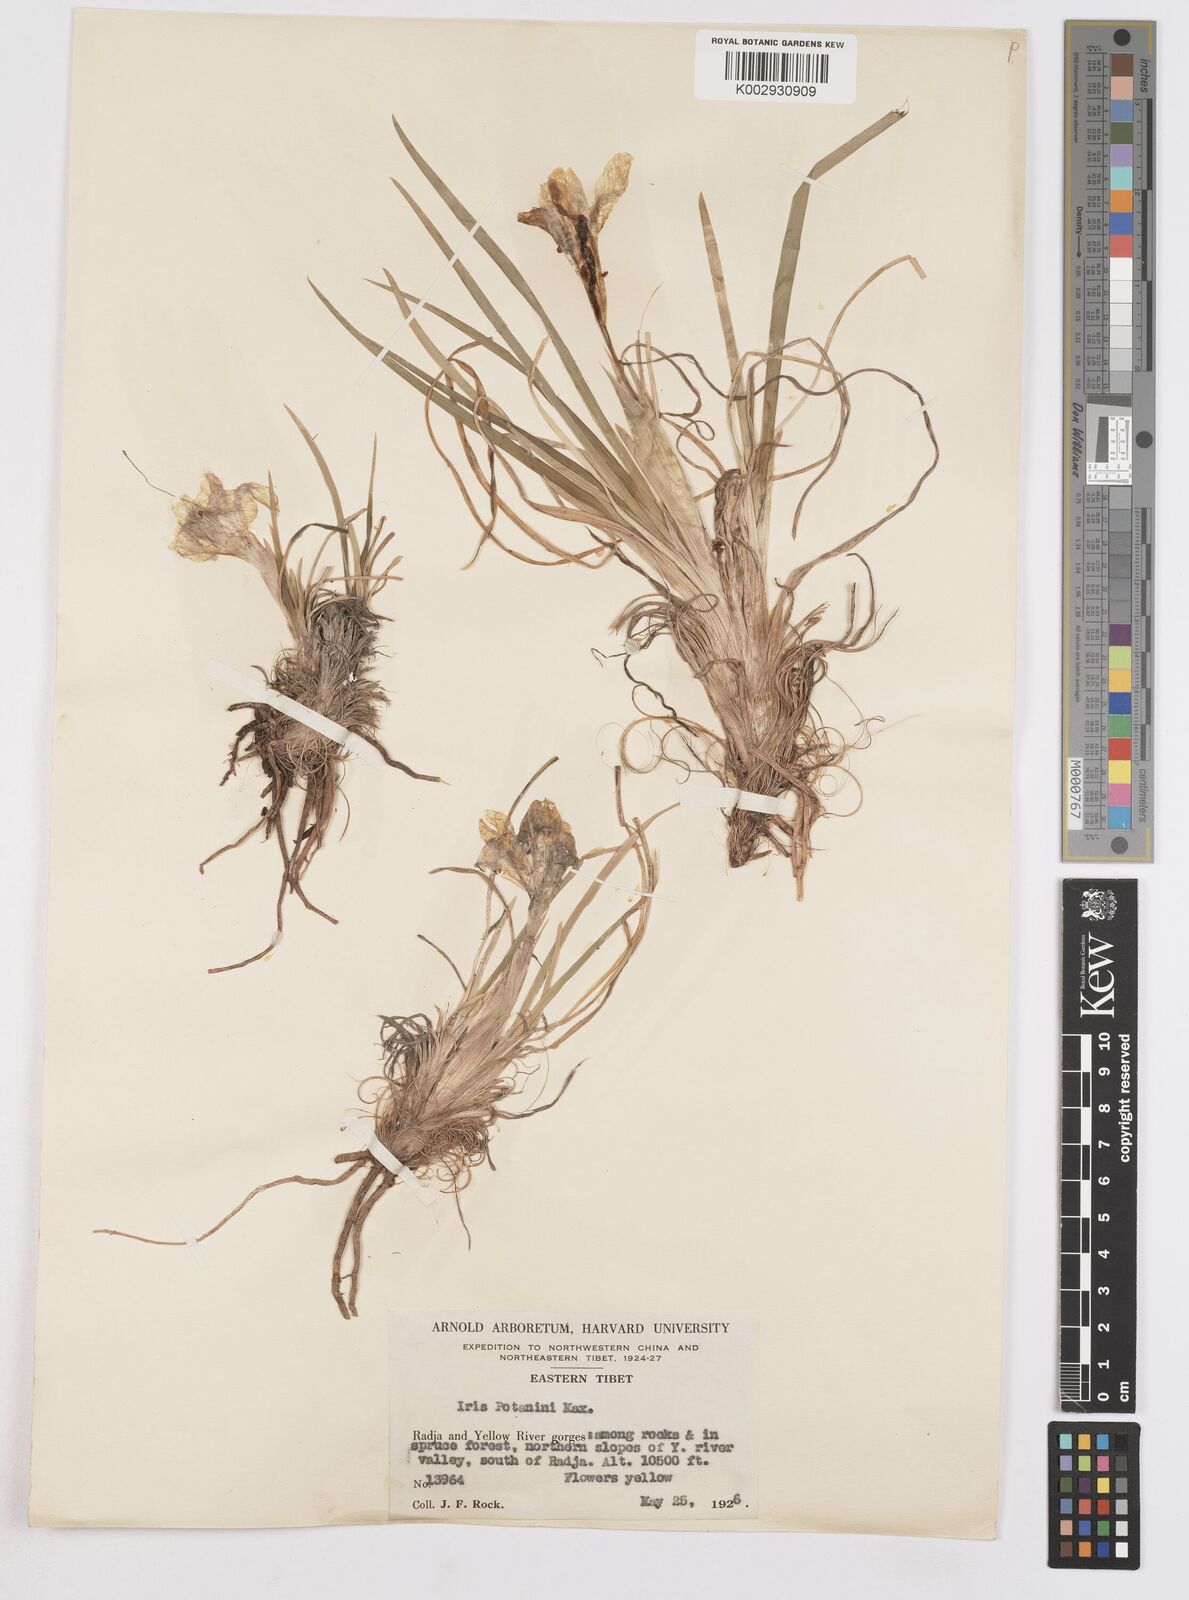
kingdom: Plantae
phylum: Tracheophyta
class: Liliopsida
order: Asparagales
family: Iridaceae
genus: Iris
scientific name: Iris potaninii
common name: Curl-sheath iris
